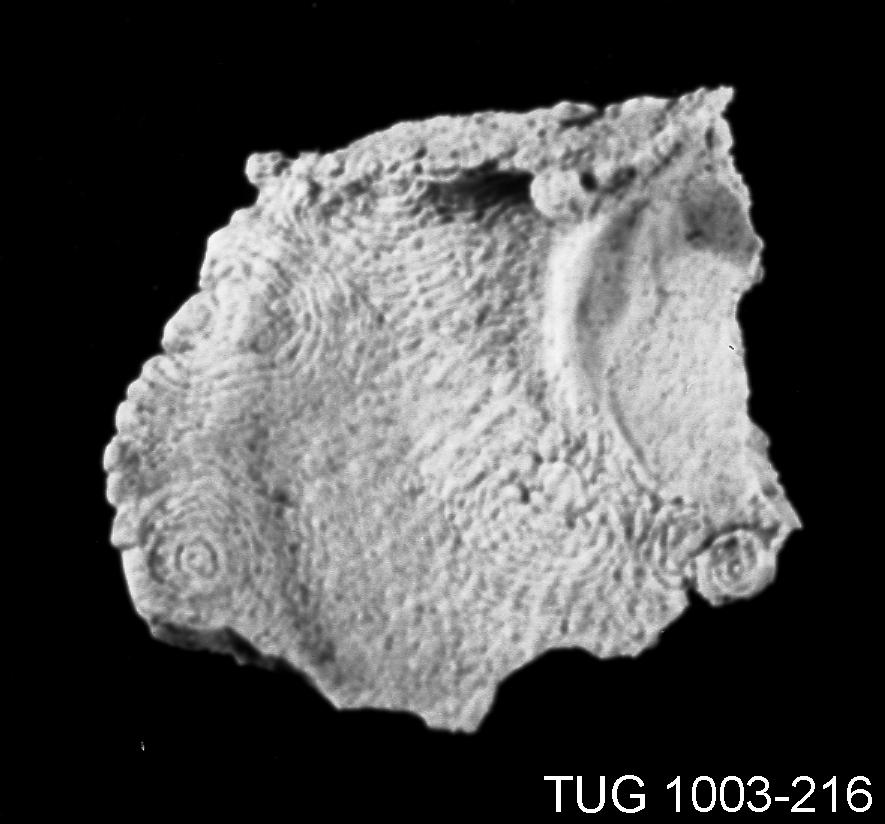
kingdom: Animalia
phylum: Brachiopoda
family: Strophomenidae
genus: Leptaena
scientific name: Leptaena cryptoides
